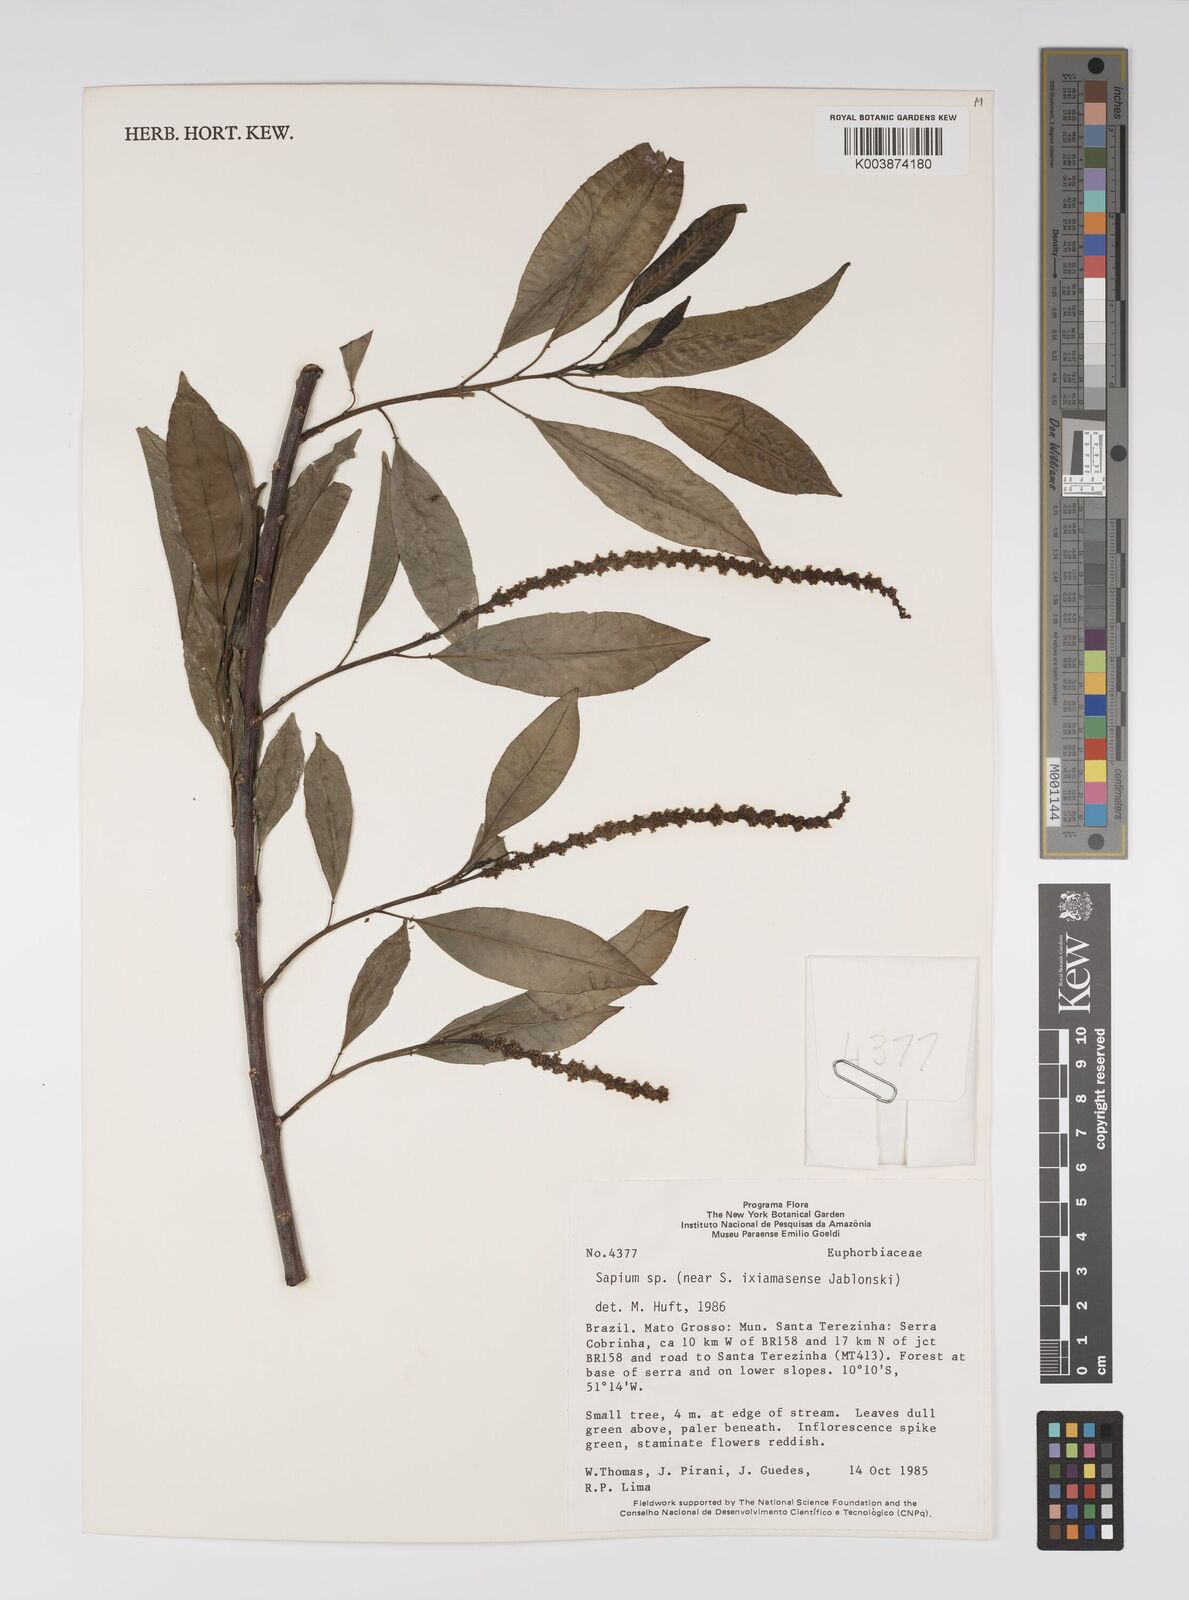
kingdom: Plantae
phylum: Tracheophyta
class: Magnoliopsida
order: Malpighiales
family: Euphorbiaceae
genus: Sapium
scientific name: Sapium
